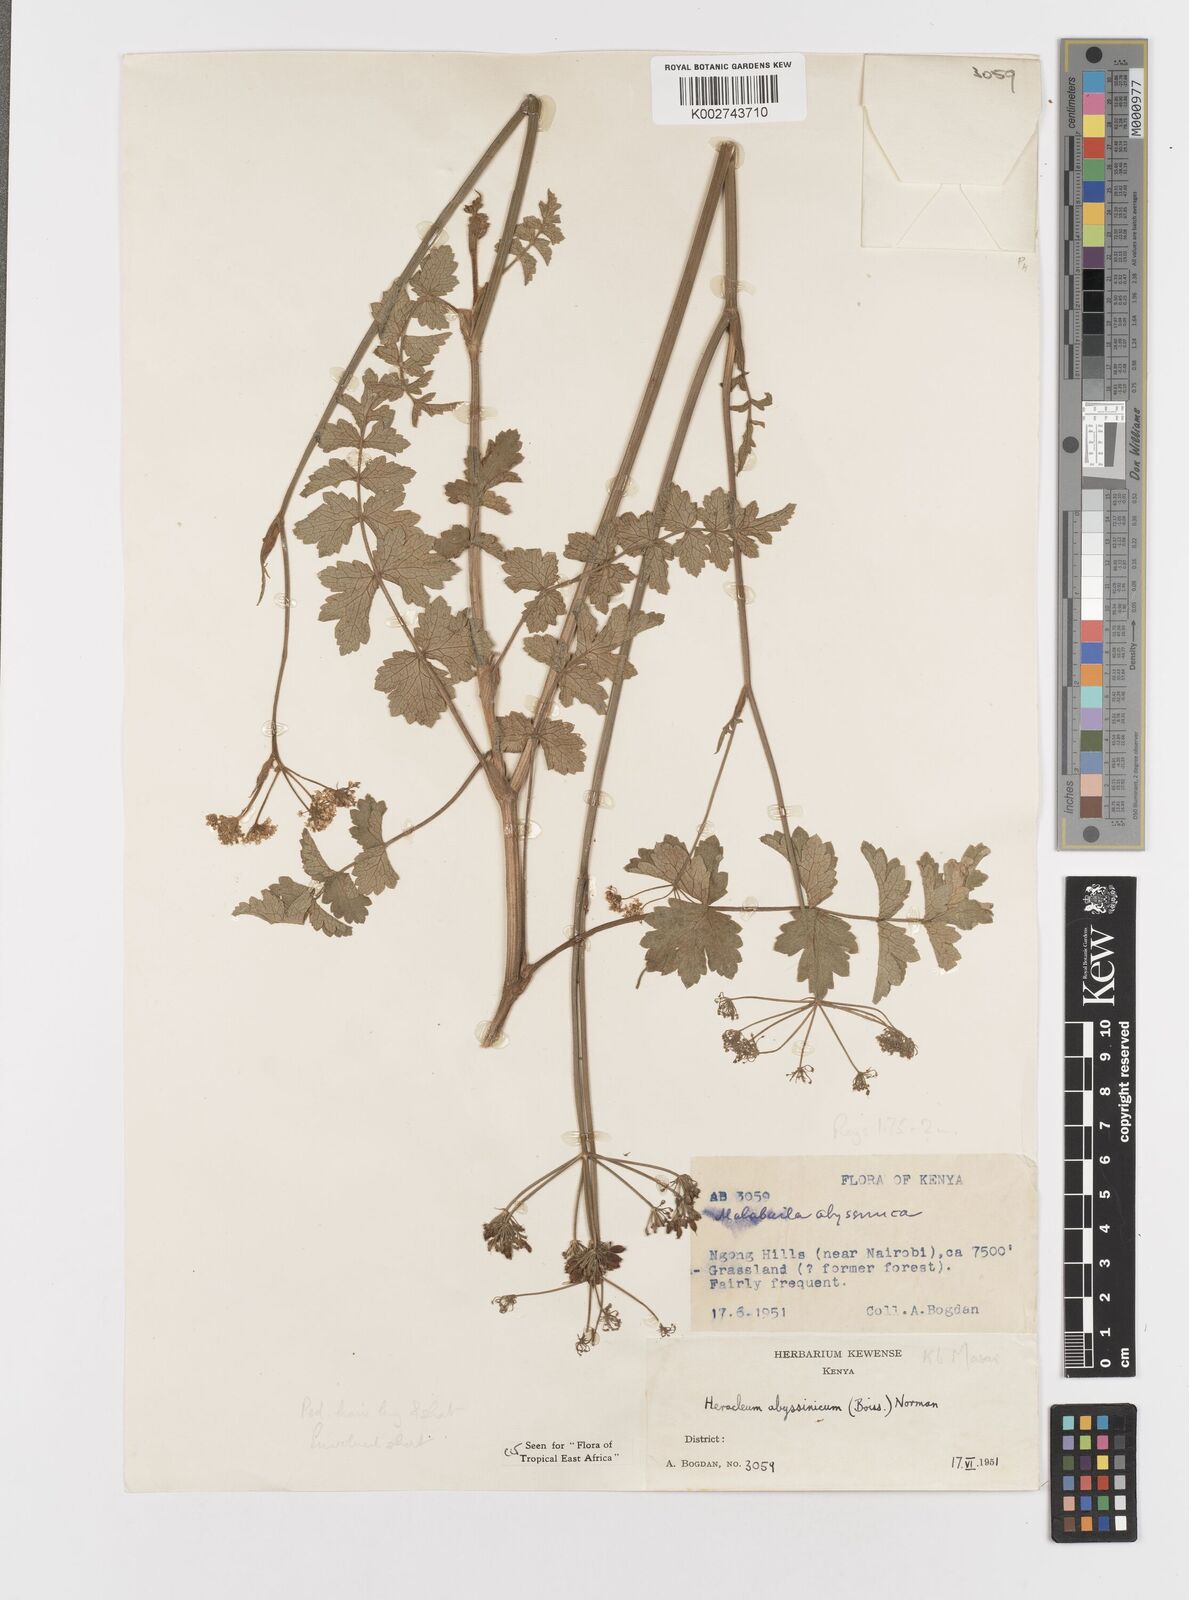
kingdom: Plantae
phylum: Tracheophyta
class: Magnoliopsida
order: Apiales
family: Apiaceae
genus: Heracleum
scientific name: Heracleum abyssinicum
